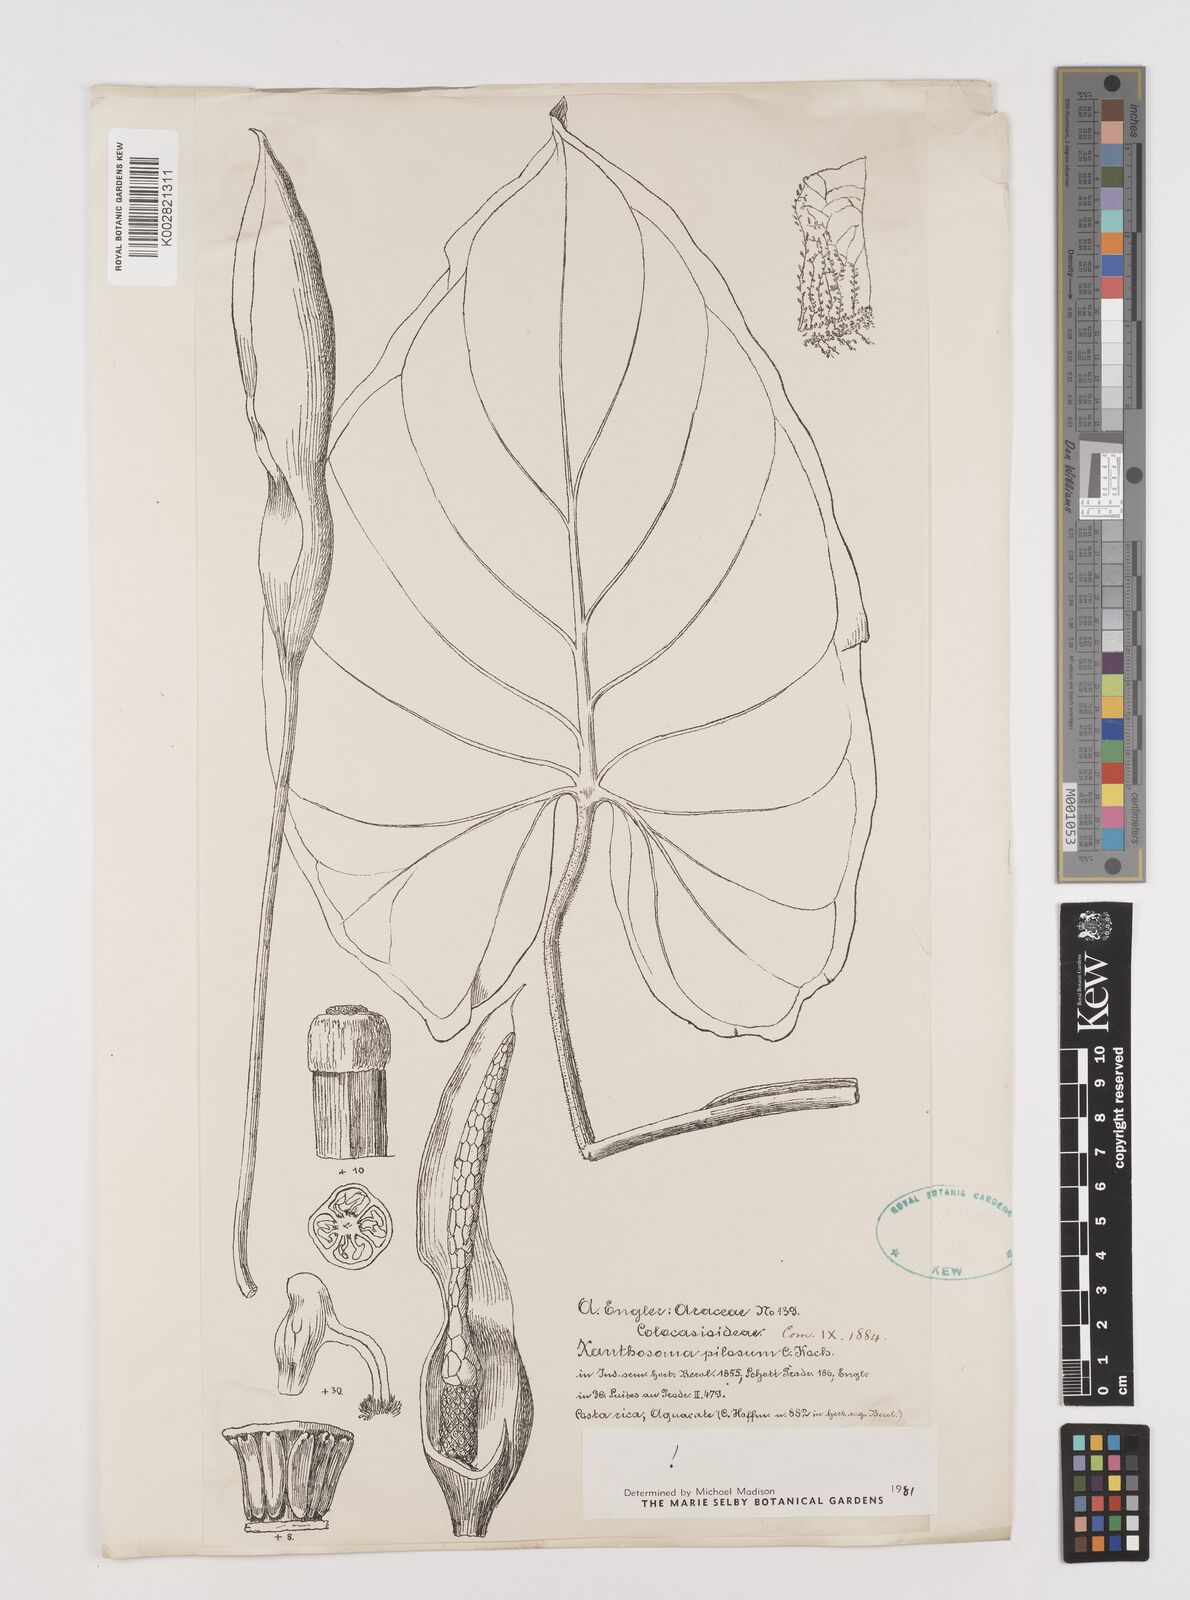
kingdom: Plantae
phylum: Tracheophyta
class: Liliopsida
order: Alismatales
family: Araceae
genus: Xanthosoma
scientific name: Xanthosoma mexicanum
